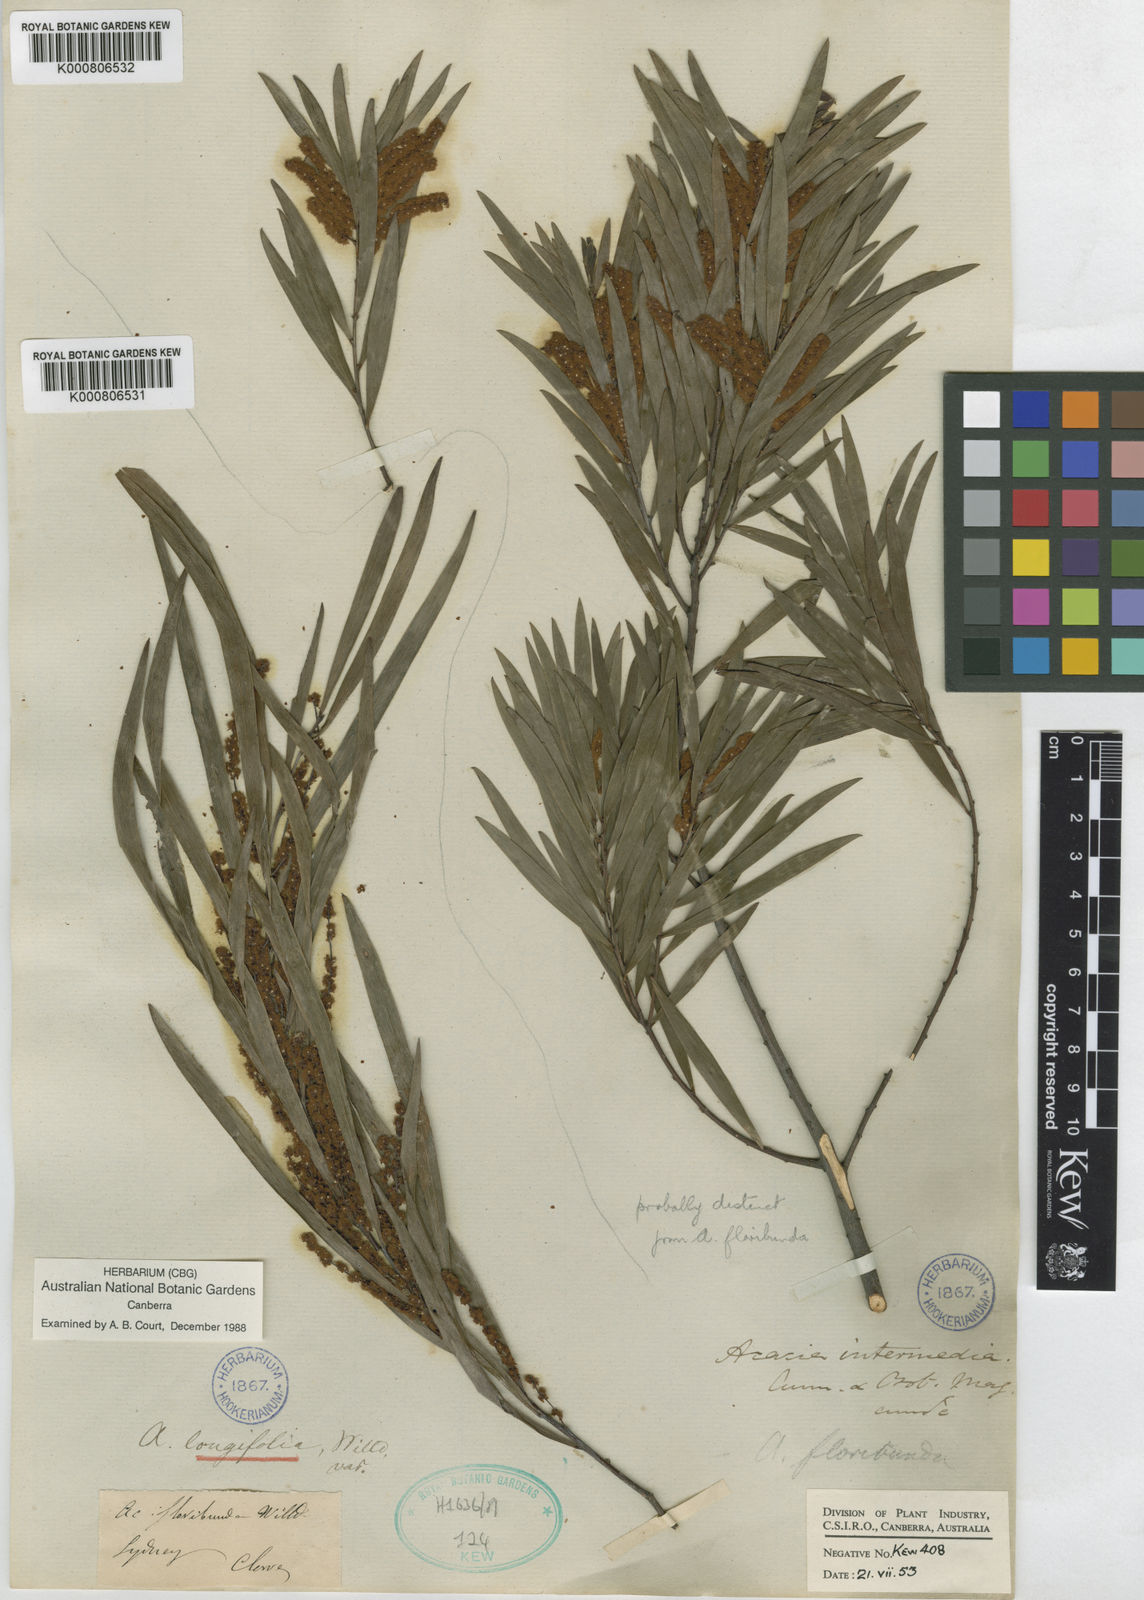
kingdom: Plantae
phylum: Tracheophyta
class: Magnoliopsida
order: Fabales
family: Fabaceae
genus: Acacia
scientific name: Acacia floribunda
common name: Gossamer wattle
